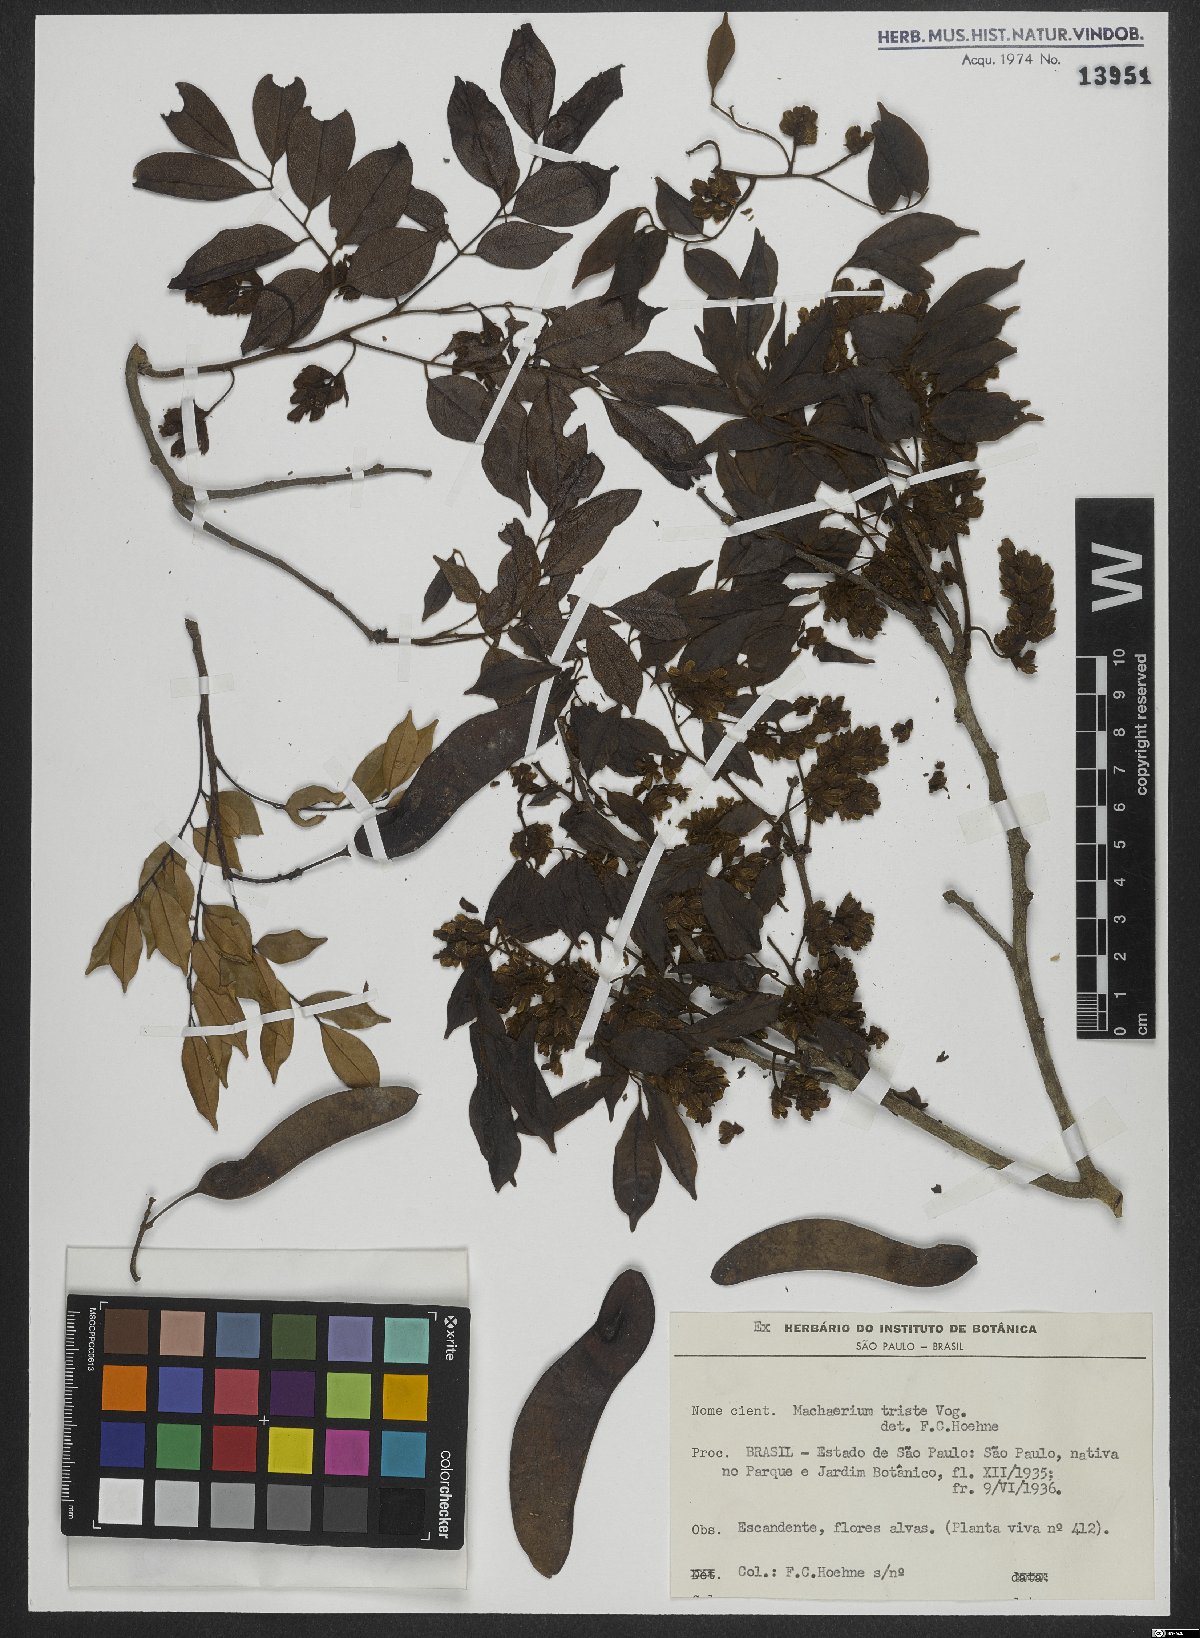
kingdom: Plantae
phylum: Tracheophyta
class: Magnoliopsida
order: Fabales
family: Fabaceae
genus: Machaerium
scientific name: Machaerium brasiliense
